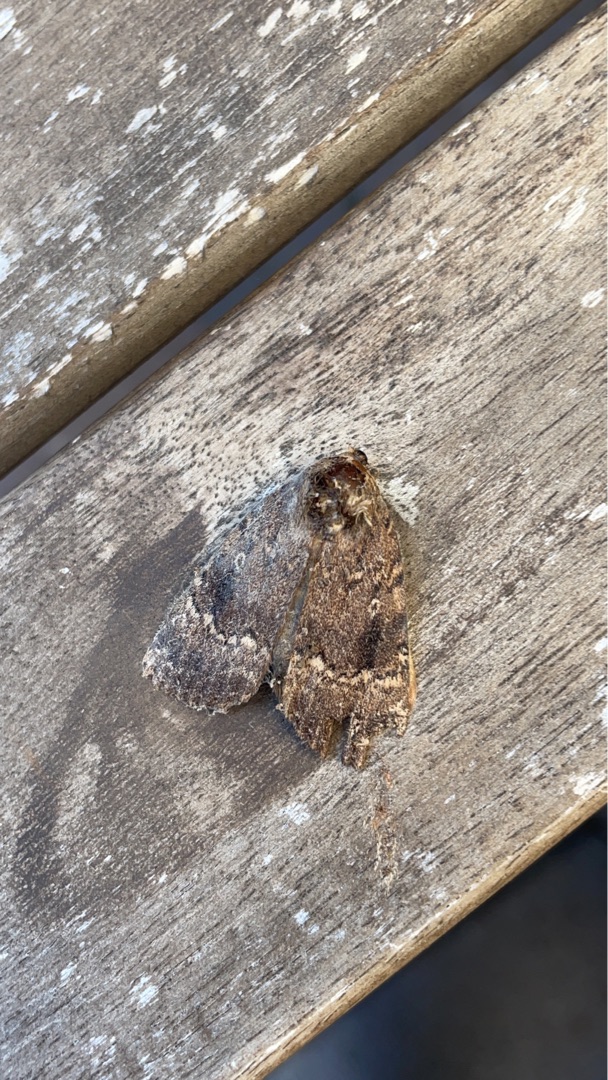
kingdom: Animalia
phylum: Arthropoda
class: Insecta
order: Lepidoptera
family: Noctuidae
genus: Amphipyra
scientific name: Amphipyra pyramidea
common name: Pyramideugle
